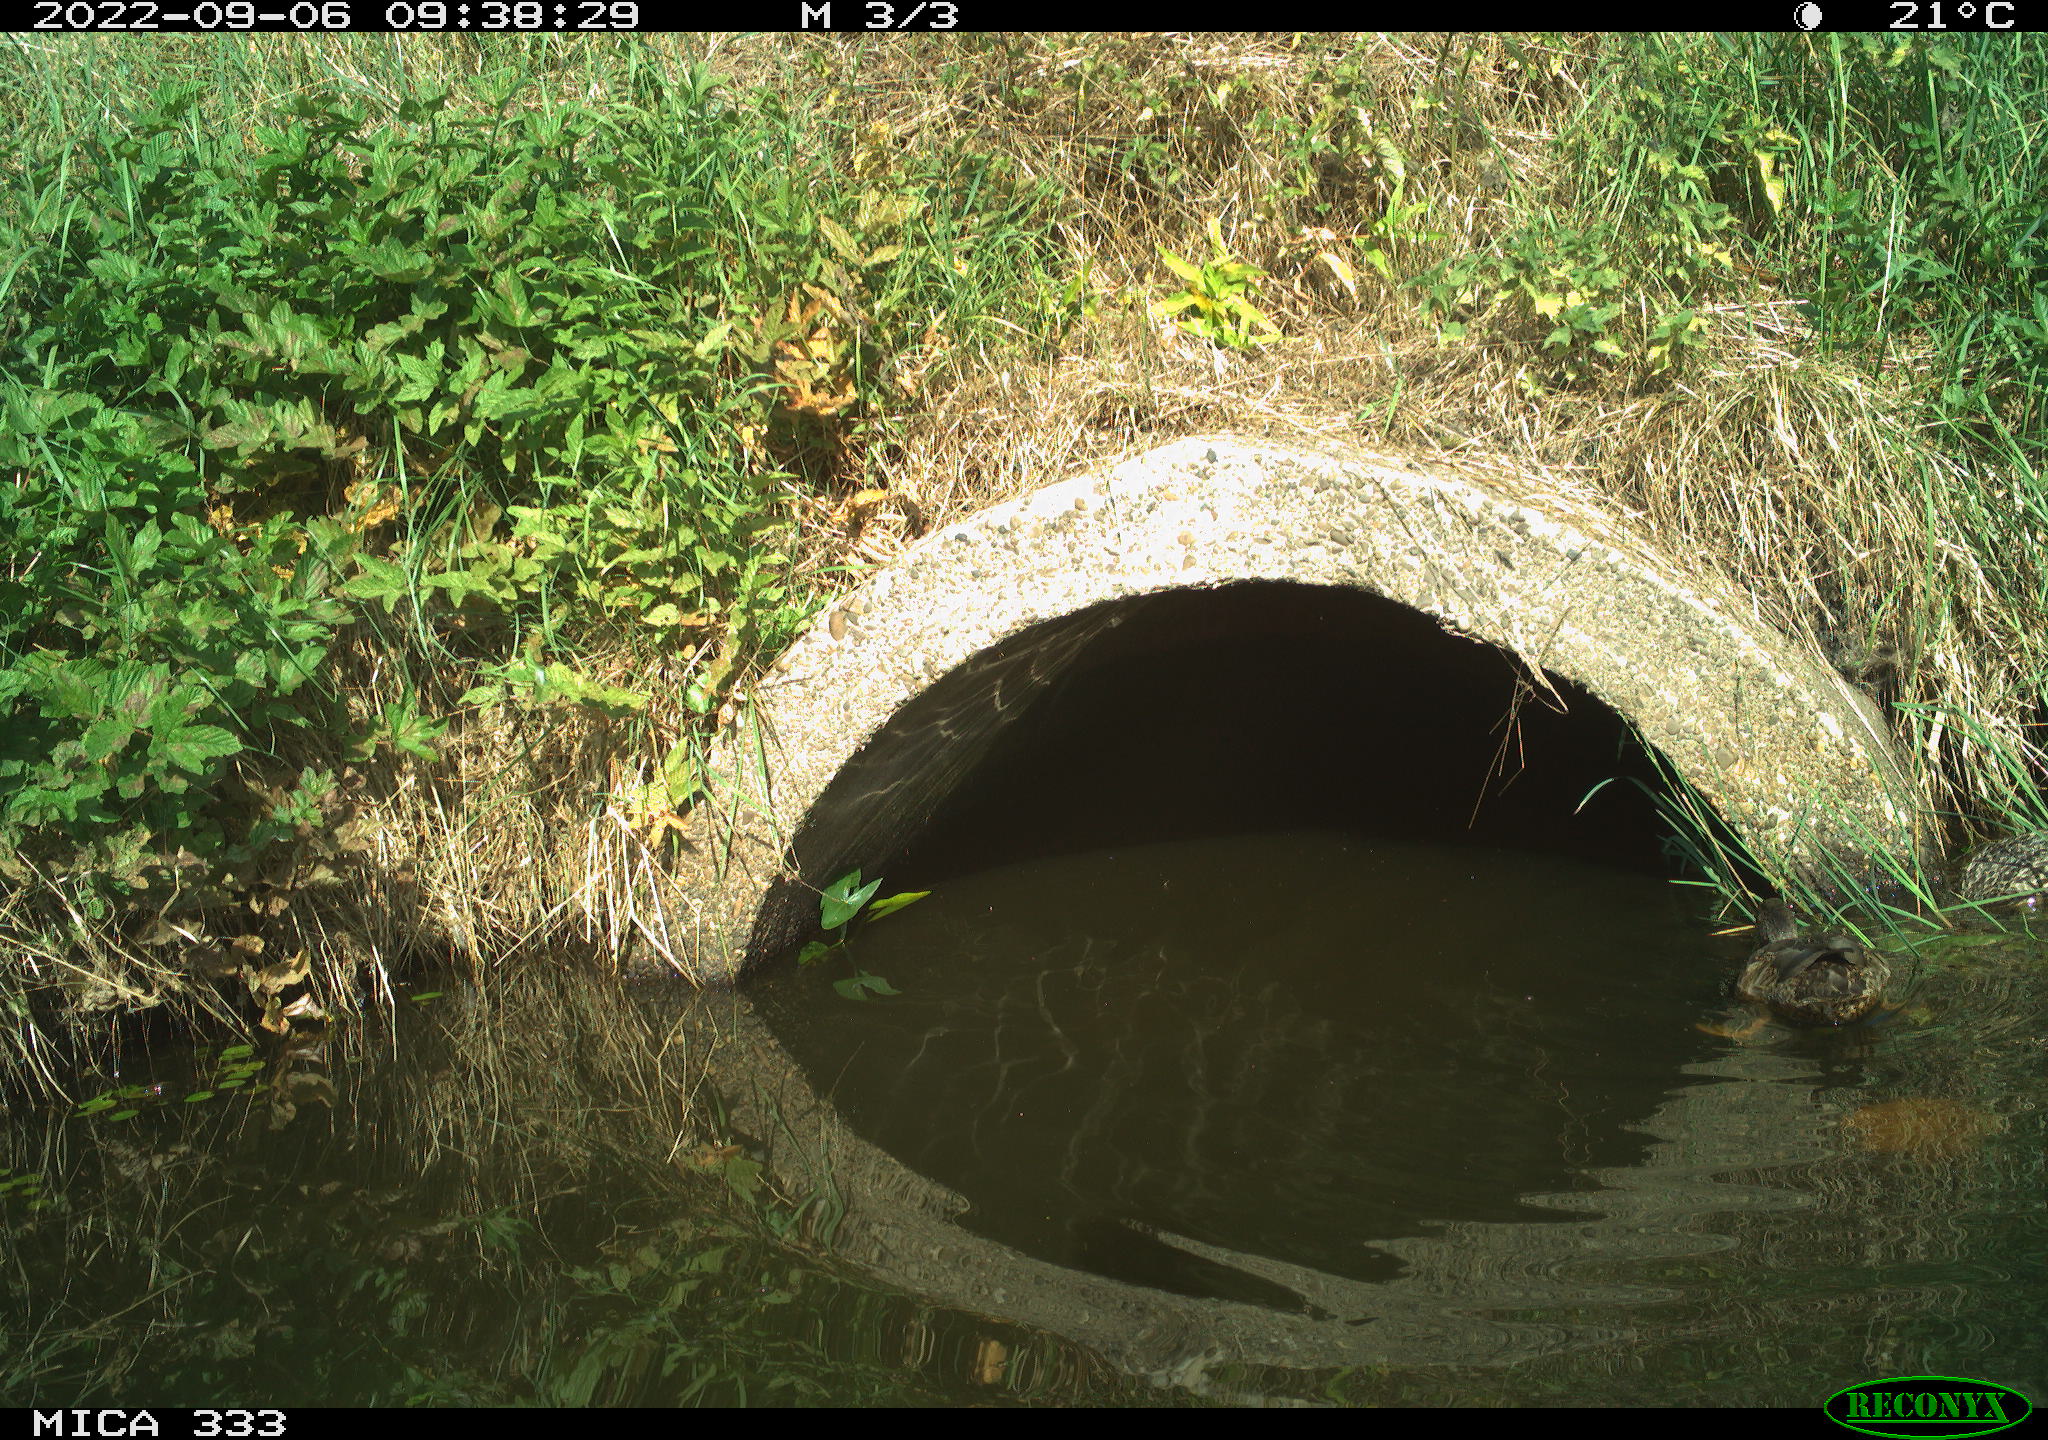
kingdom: Animalia
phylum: Chordata
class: Aves
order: Anseriformes
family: Anatidae
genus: Anas
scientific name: Anas platyrhynchos
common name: Mallard
